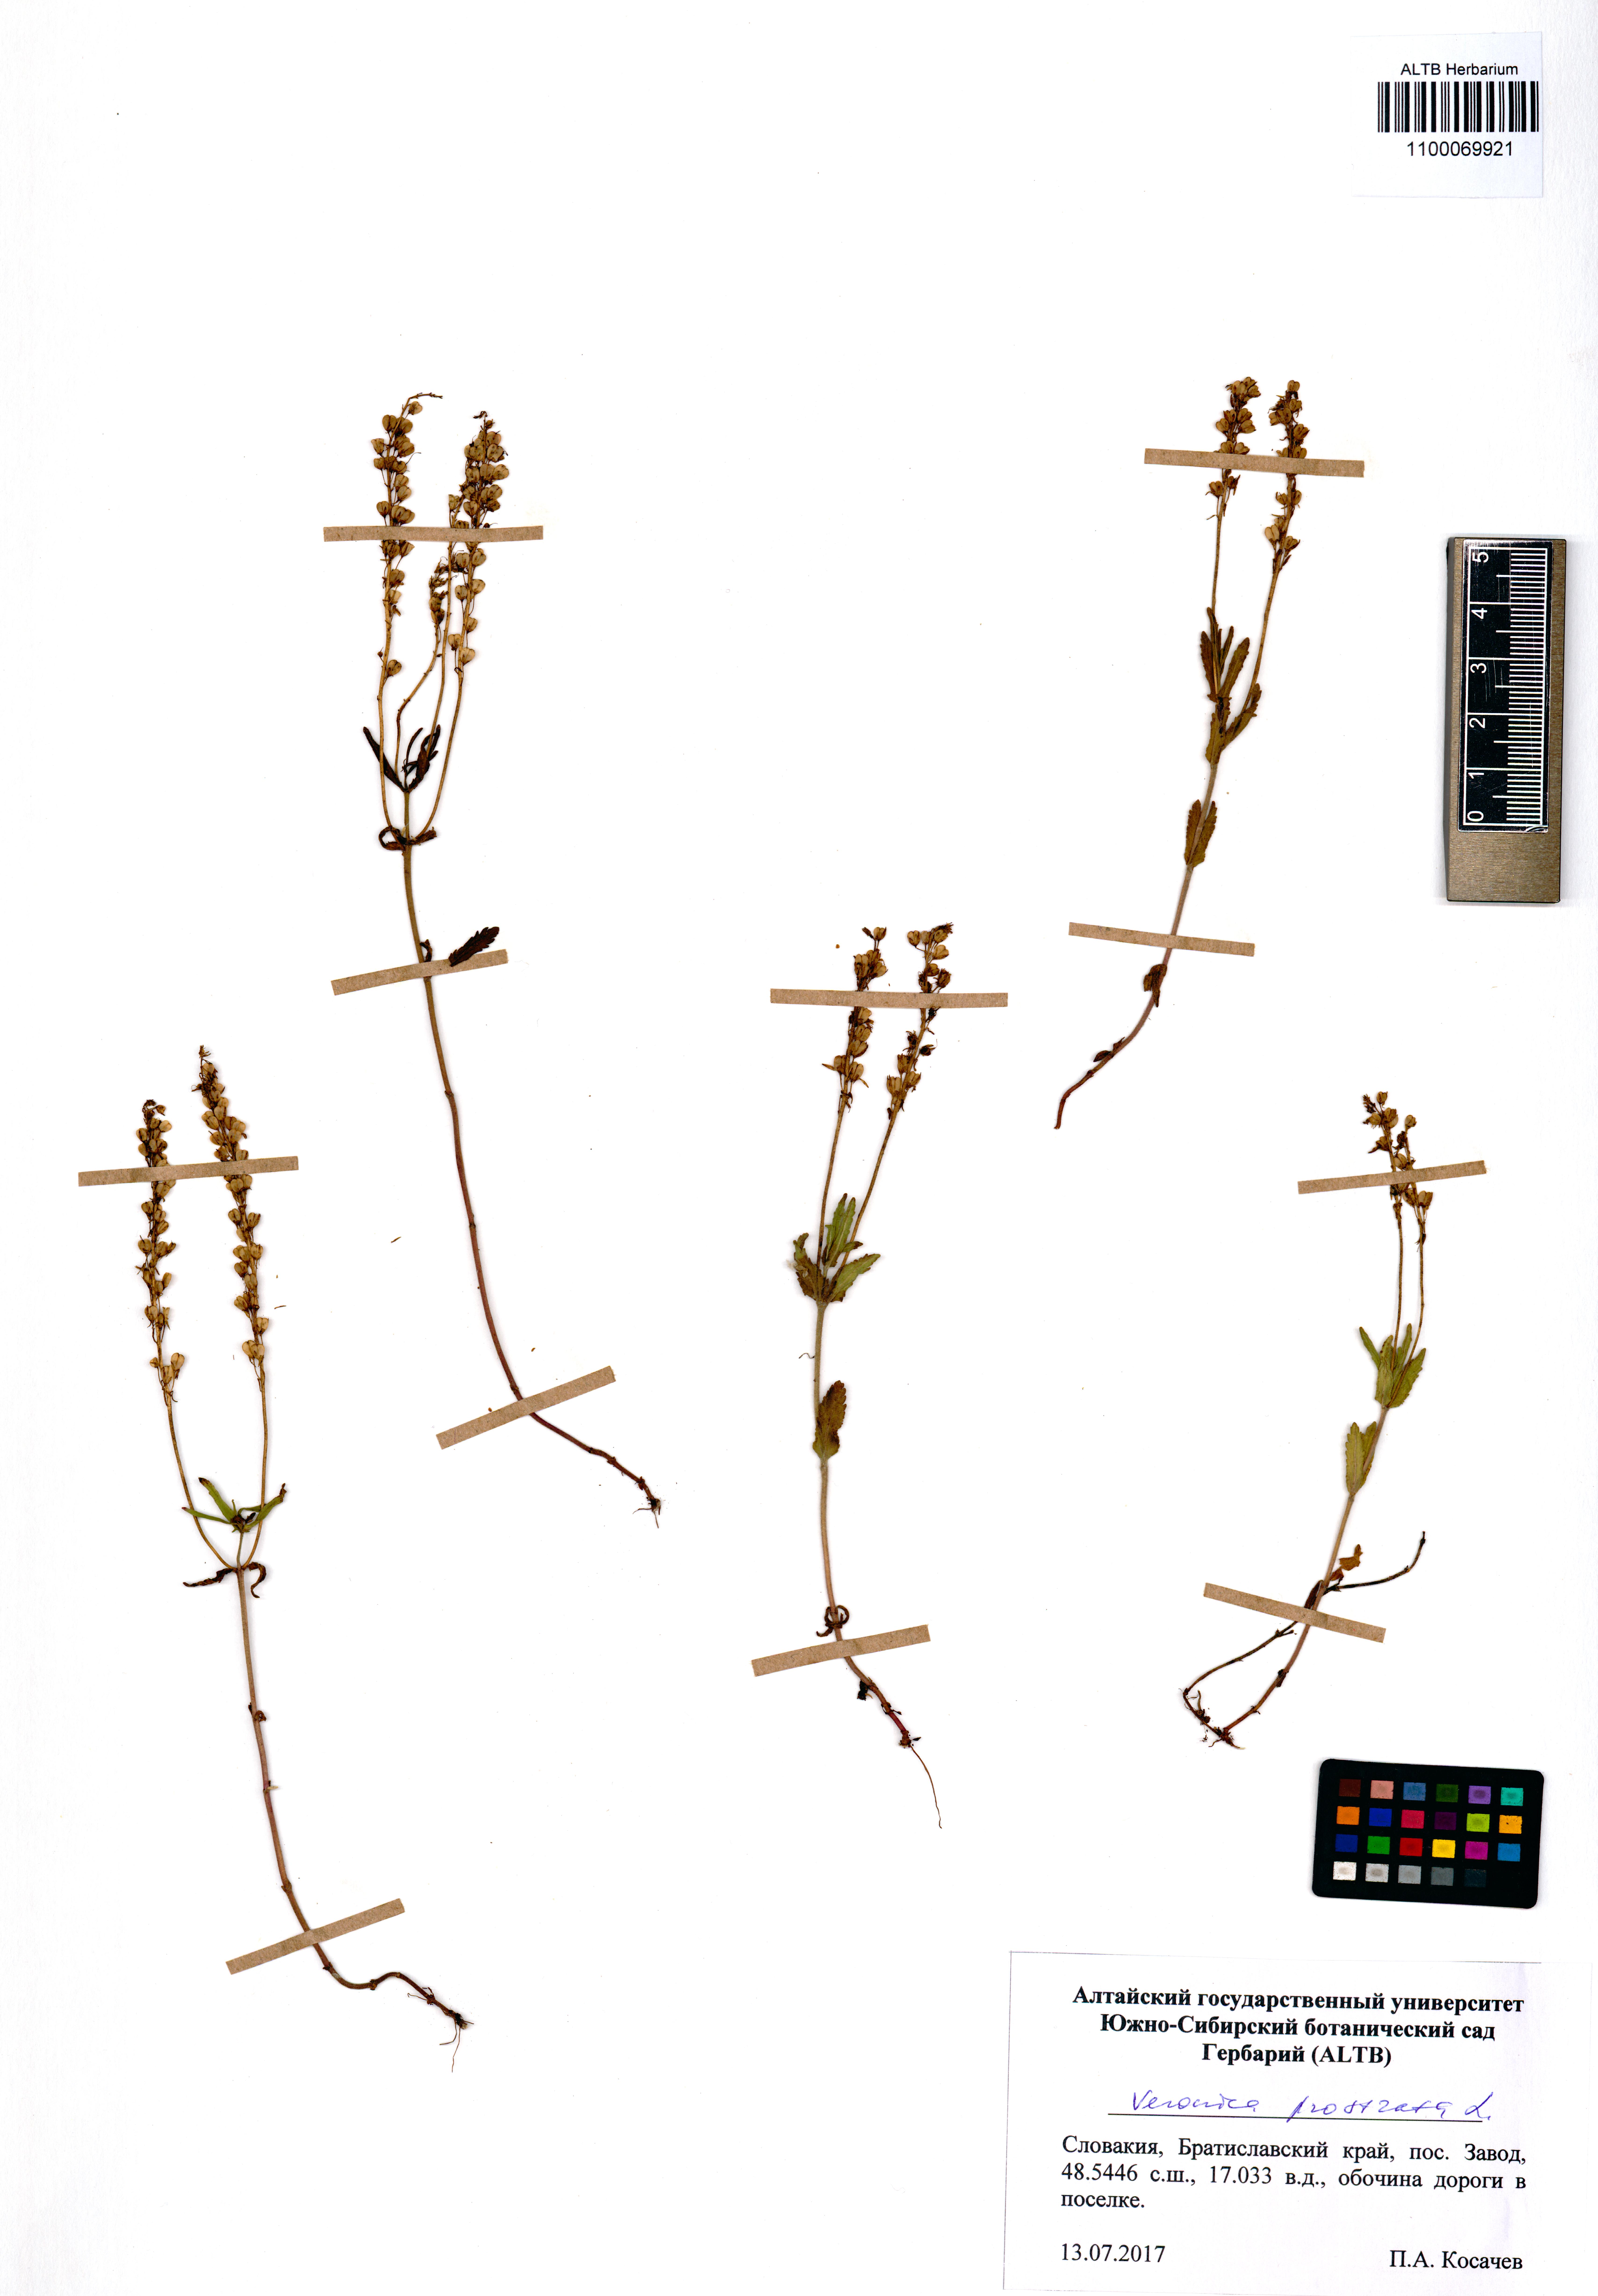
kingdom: Plantae
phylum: Tracheophyta
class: Magnoliopsida
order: Lamiales
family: Plantaginaceae
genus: Veronica
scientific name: Veronica prostrata
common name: Prostrate speedwell
